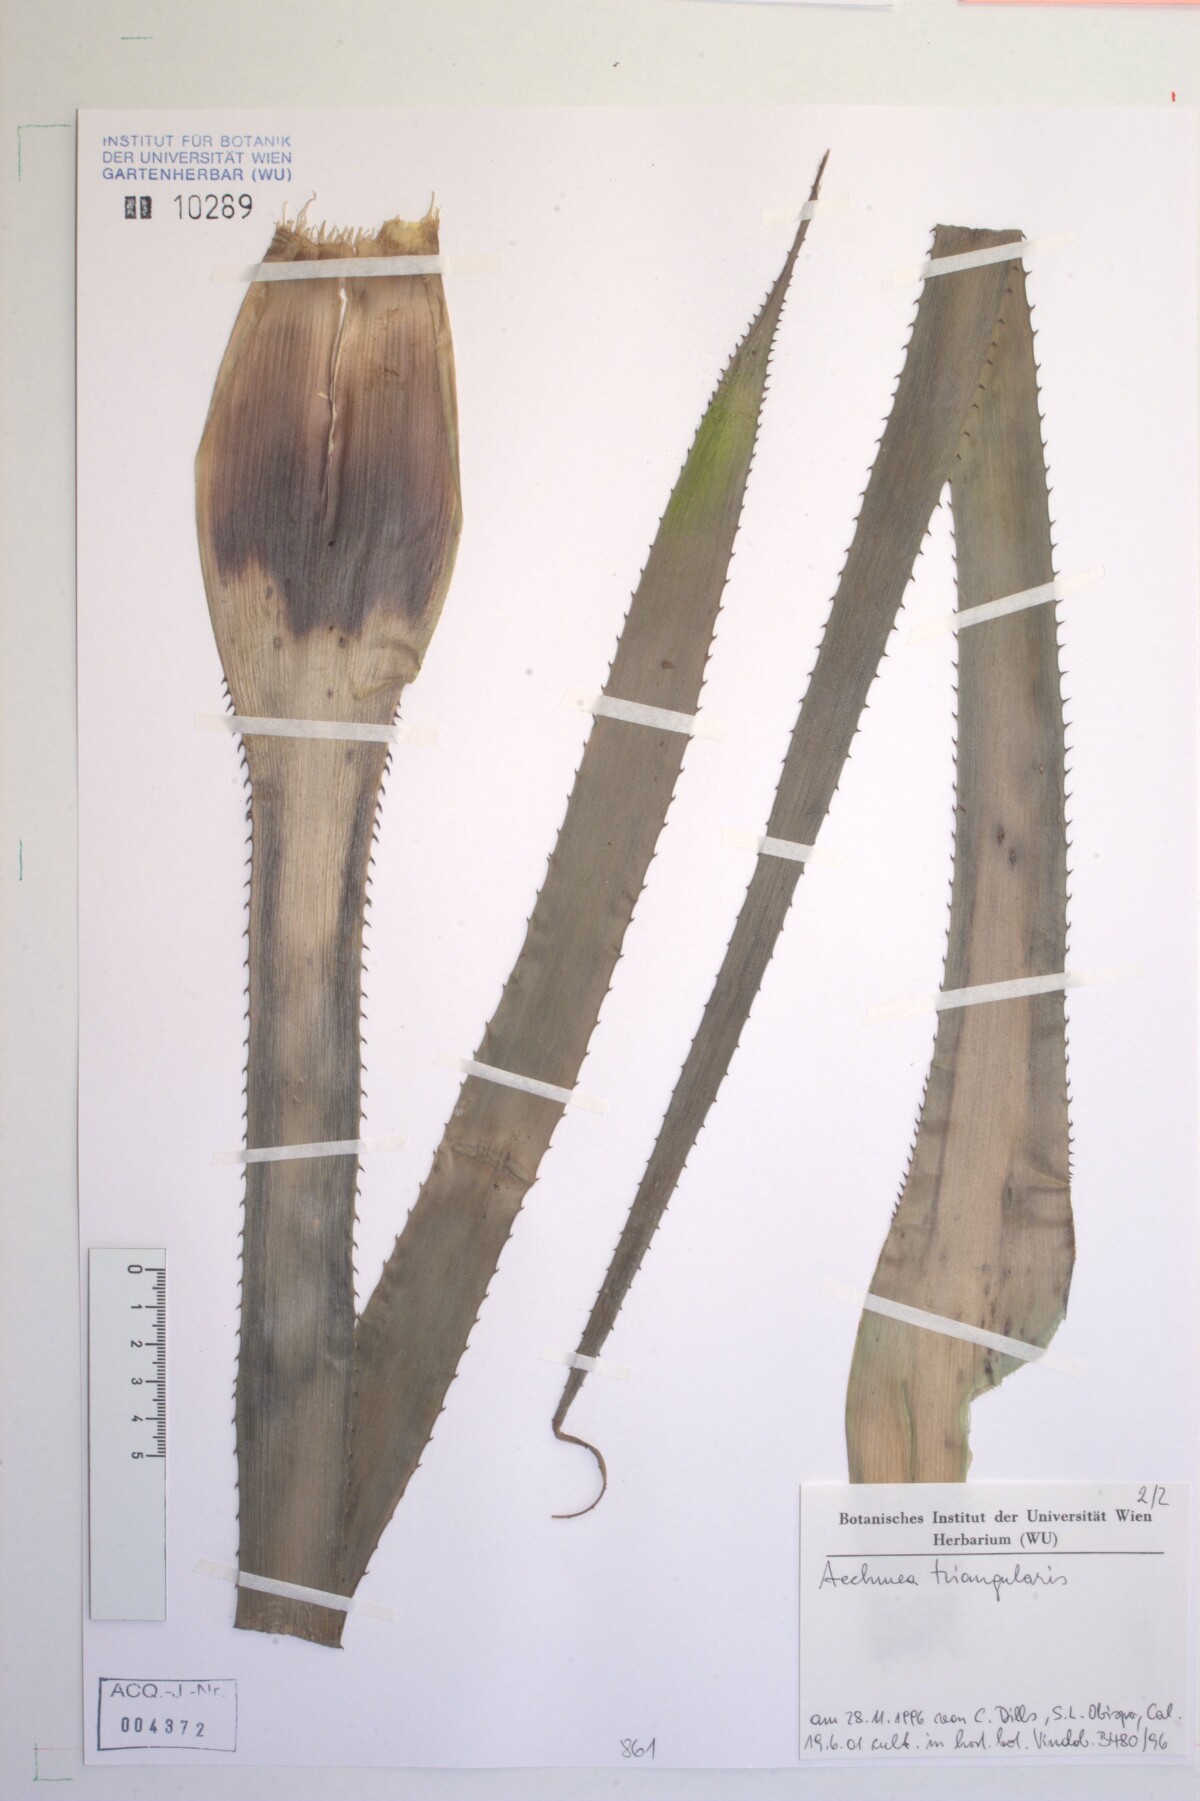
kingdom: Plantae
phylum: Tracheophyta
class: Liliopsida
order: Poales
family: Bromeliaceae
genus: Aechmea
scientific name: Aechmea triangularis
